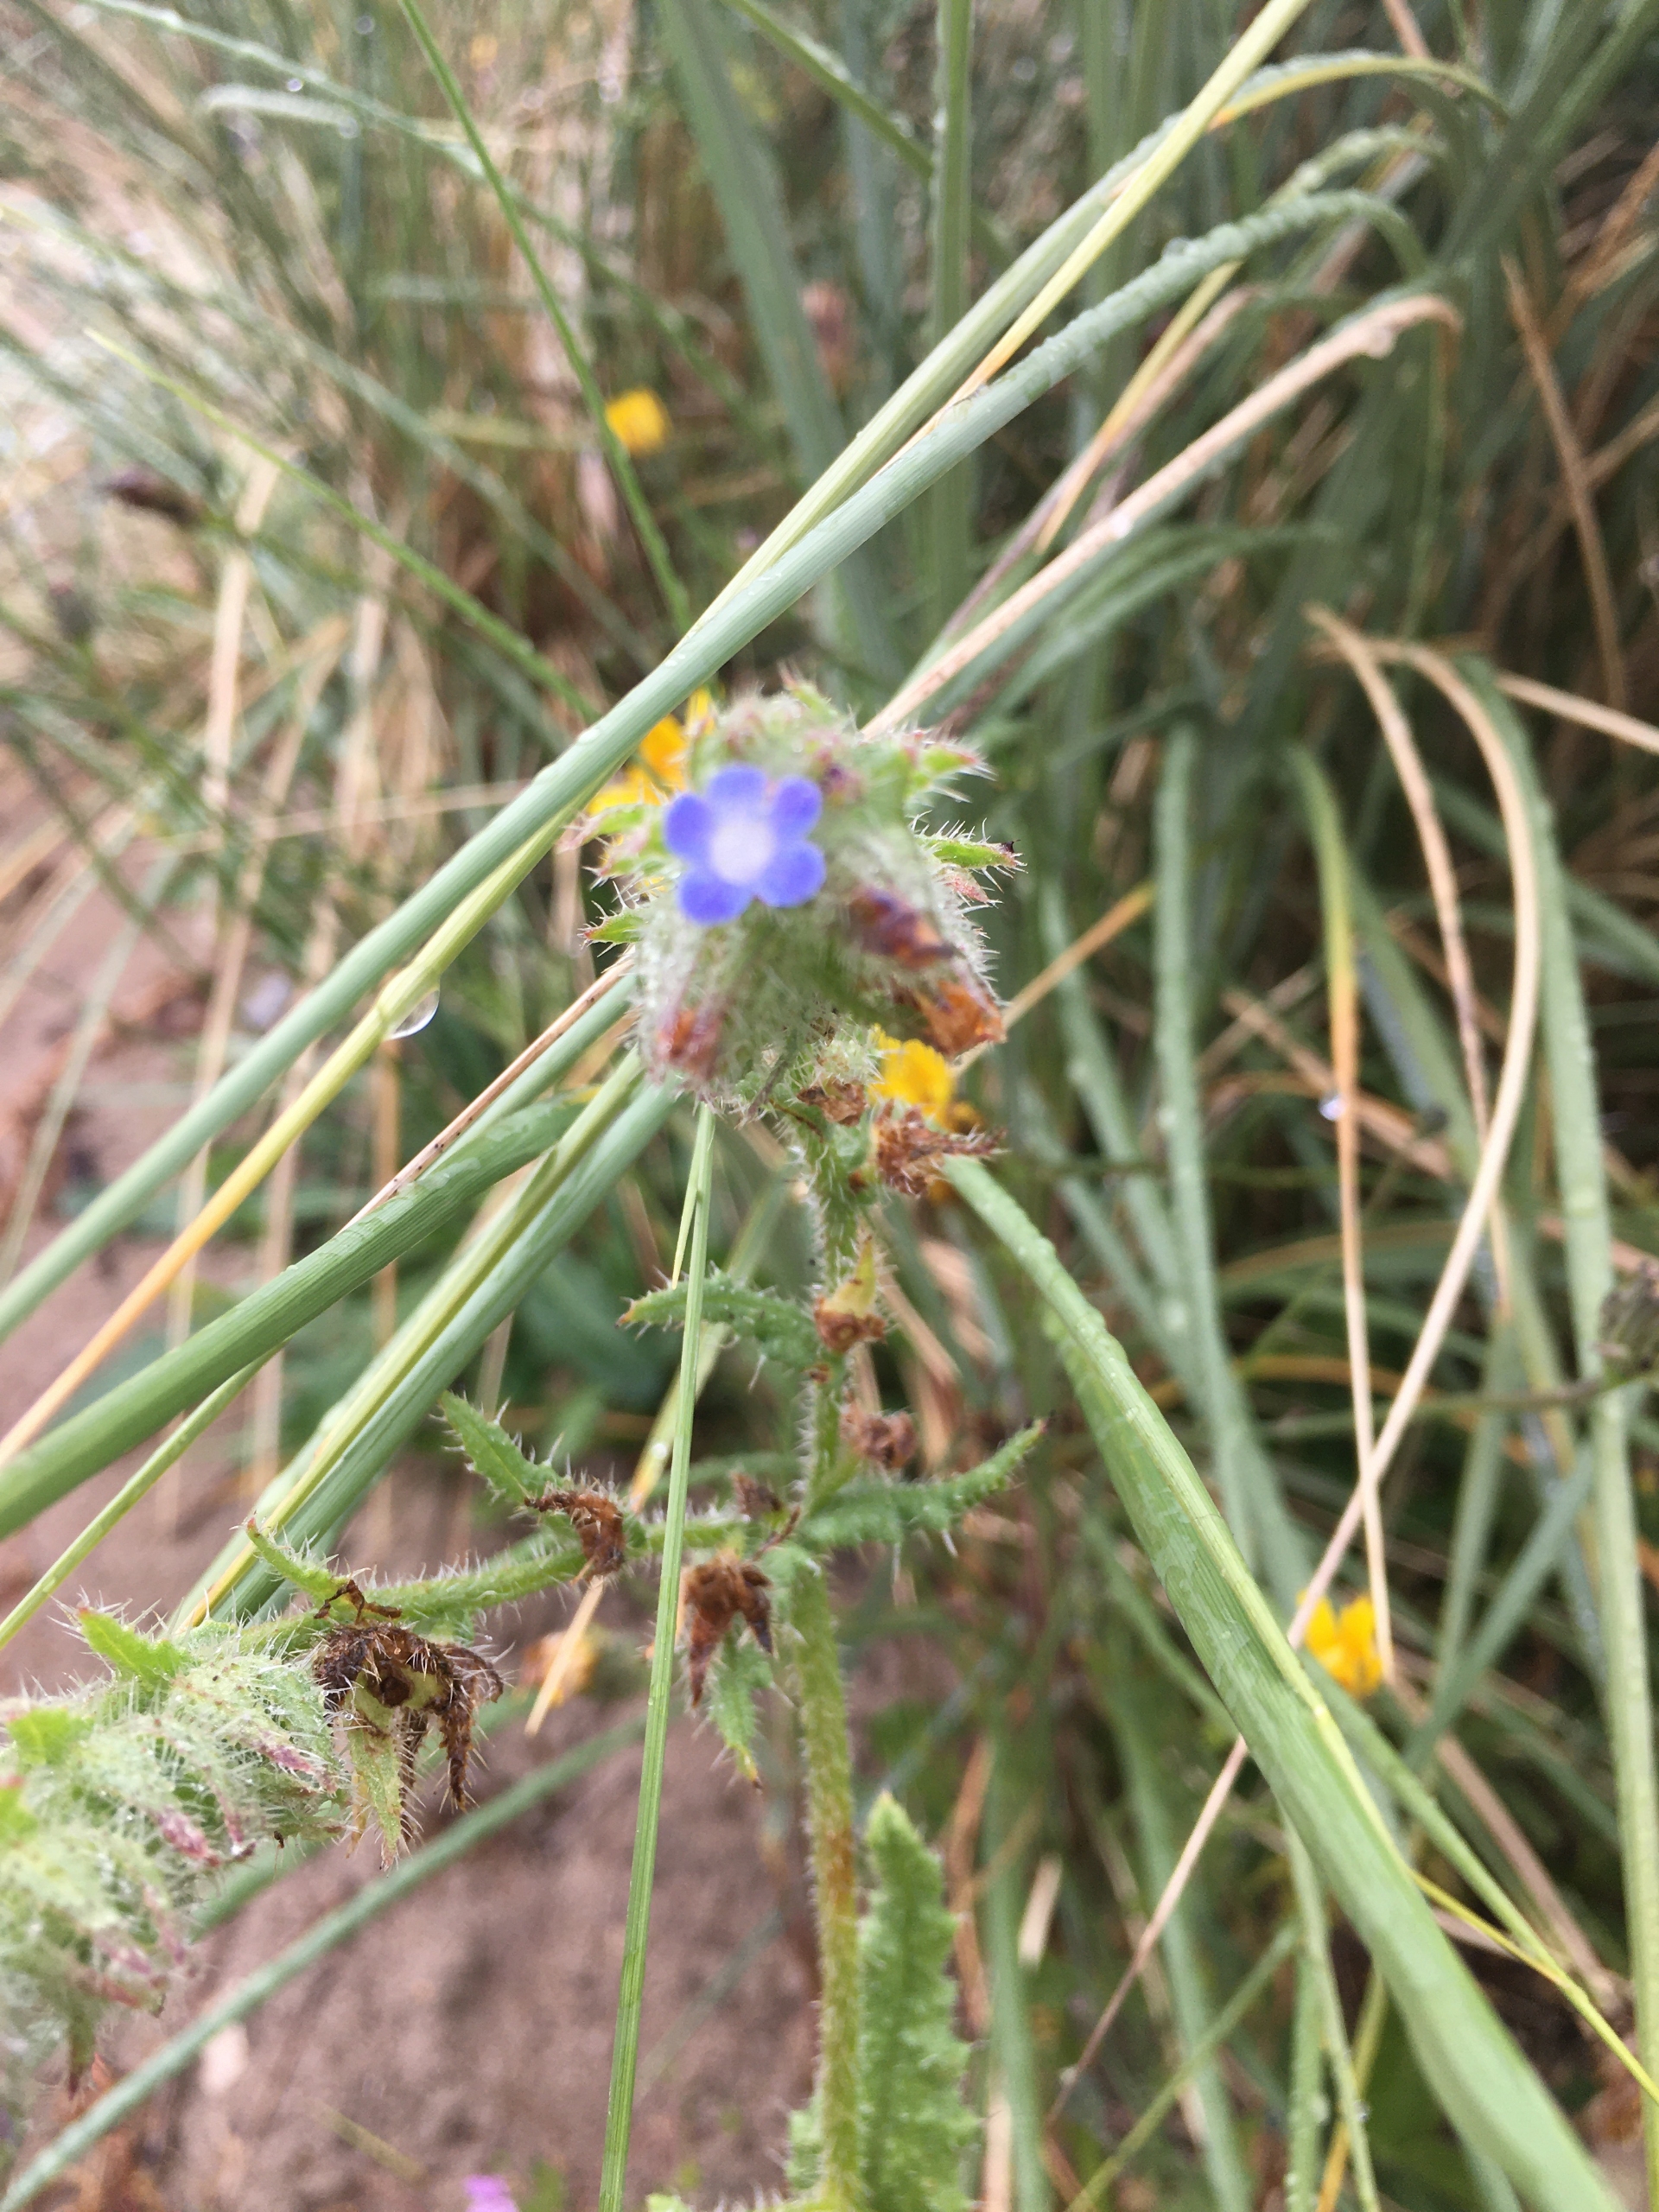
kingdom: Plantae
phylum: Tracheophyta
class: Magnoliopsida
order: Boraginales
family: Boraginaceae
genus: Lycopsis
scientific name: Lycopsis arvensis
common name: Krumhals
